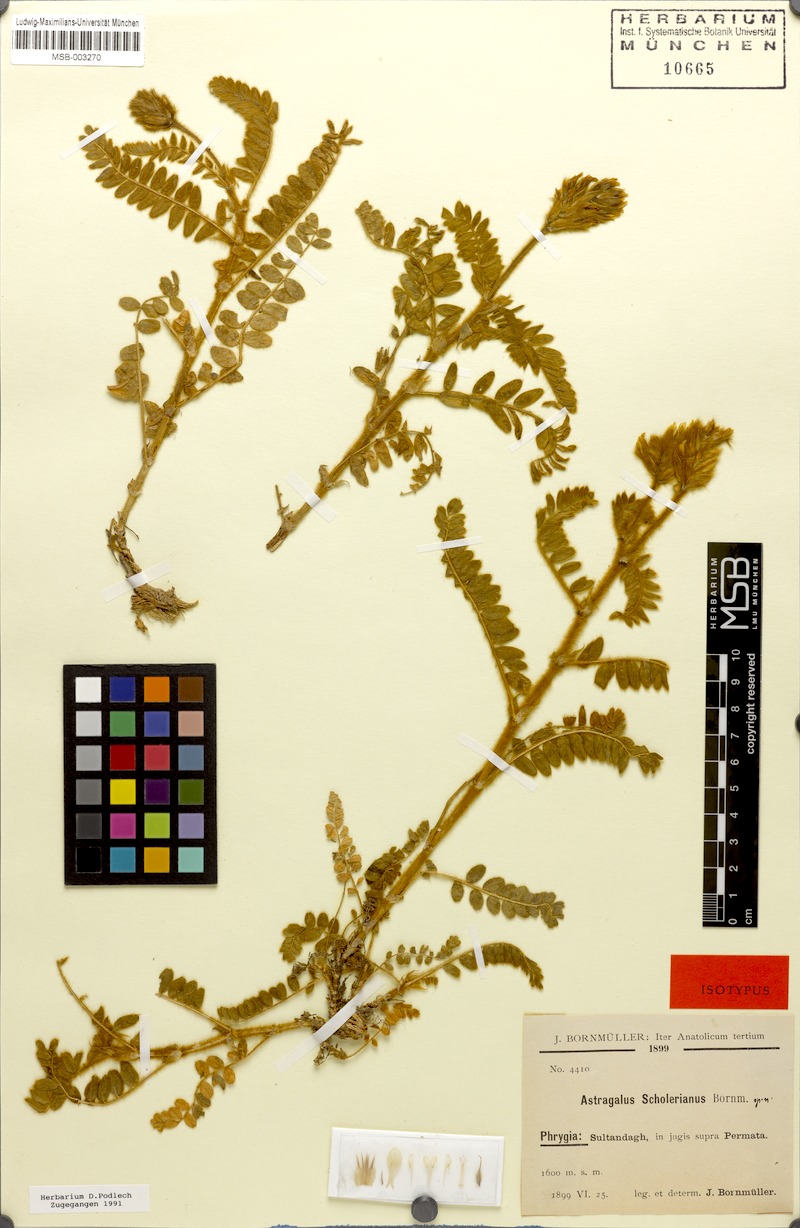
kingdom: Plantae
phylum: Tracheophyta
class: Magnoliopsida
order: Fabales
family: Fabaceae
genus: Astragalus
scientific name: Astragalus scholerianus
